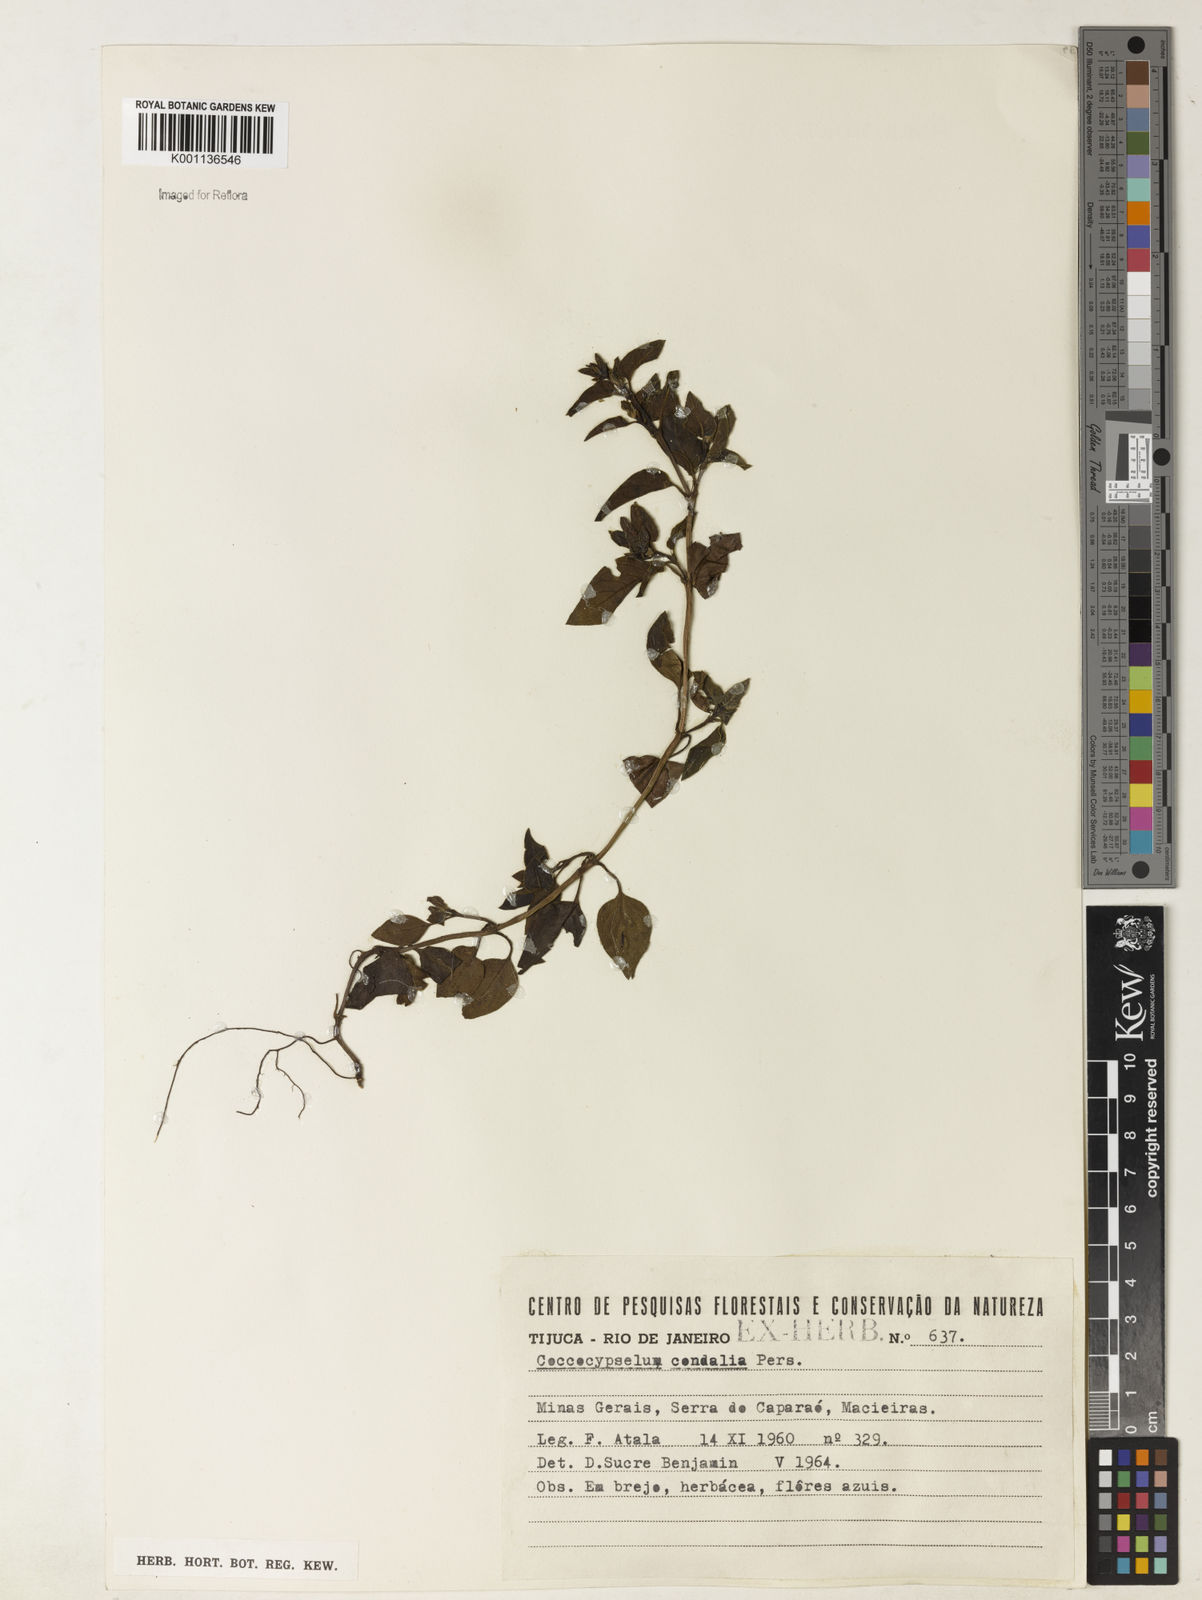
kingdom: Plantae
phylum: Tracheophyta
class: Magnoliopsida
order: Gentianales
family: Rubiaceae
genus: Coccocypselum
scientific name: Coccocypselum condalia
